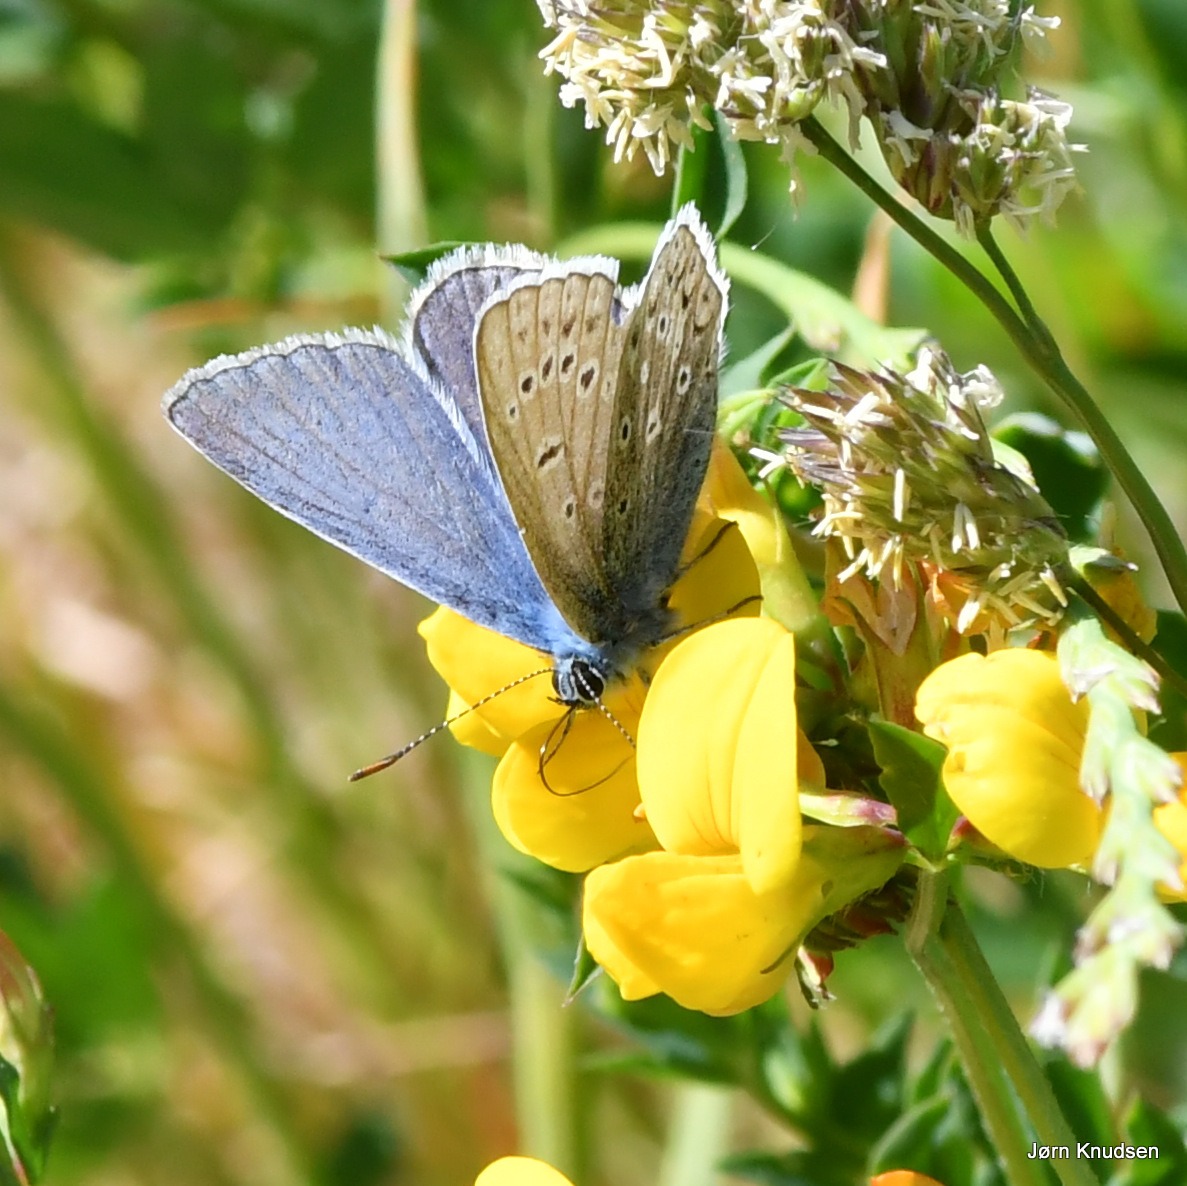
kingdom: Animalia
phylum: Arthropoda
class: Insecta
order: Lepidoptera
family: Lycaenidae
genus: Polyommatus
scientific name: Polyommatus icarus
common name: Almindelig blåfugl
